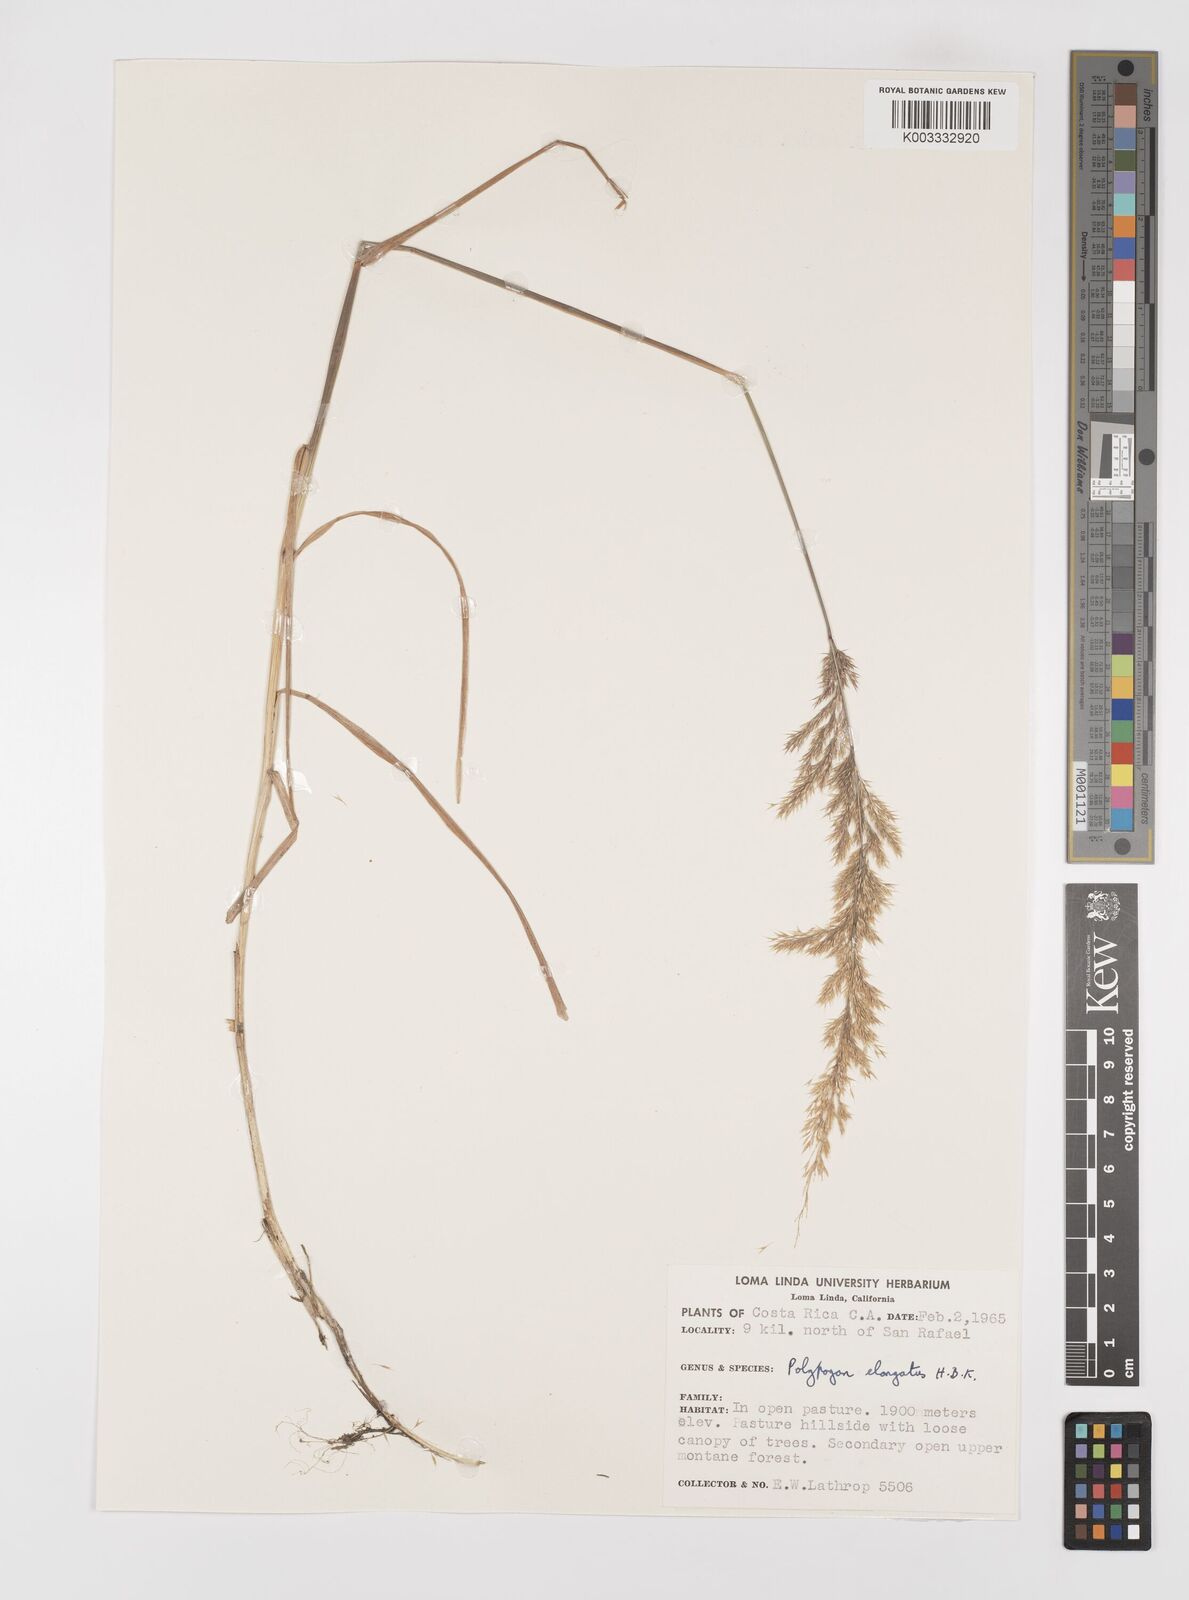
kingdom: Plantae
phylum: Tracheophyta
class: Liliopsida
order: Poales
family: Poaceae
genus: Polypogon
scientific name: Polypogon elongatus
